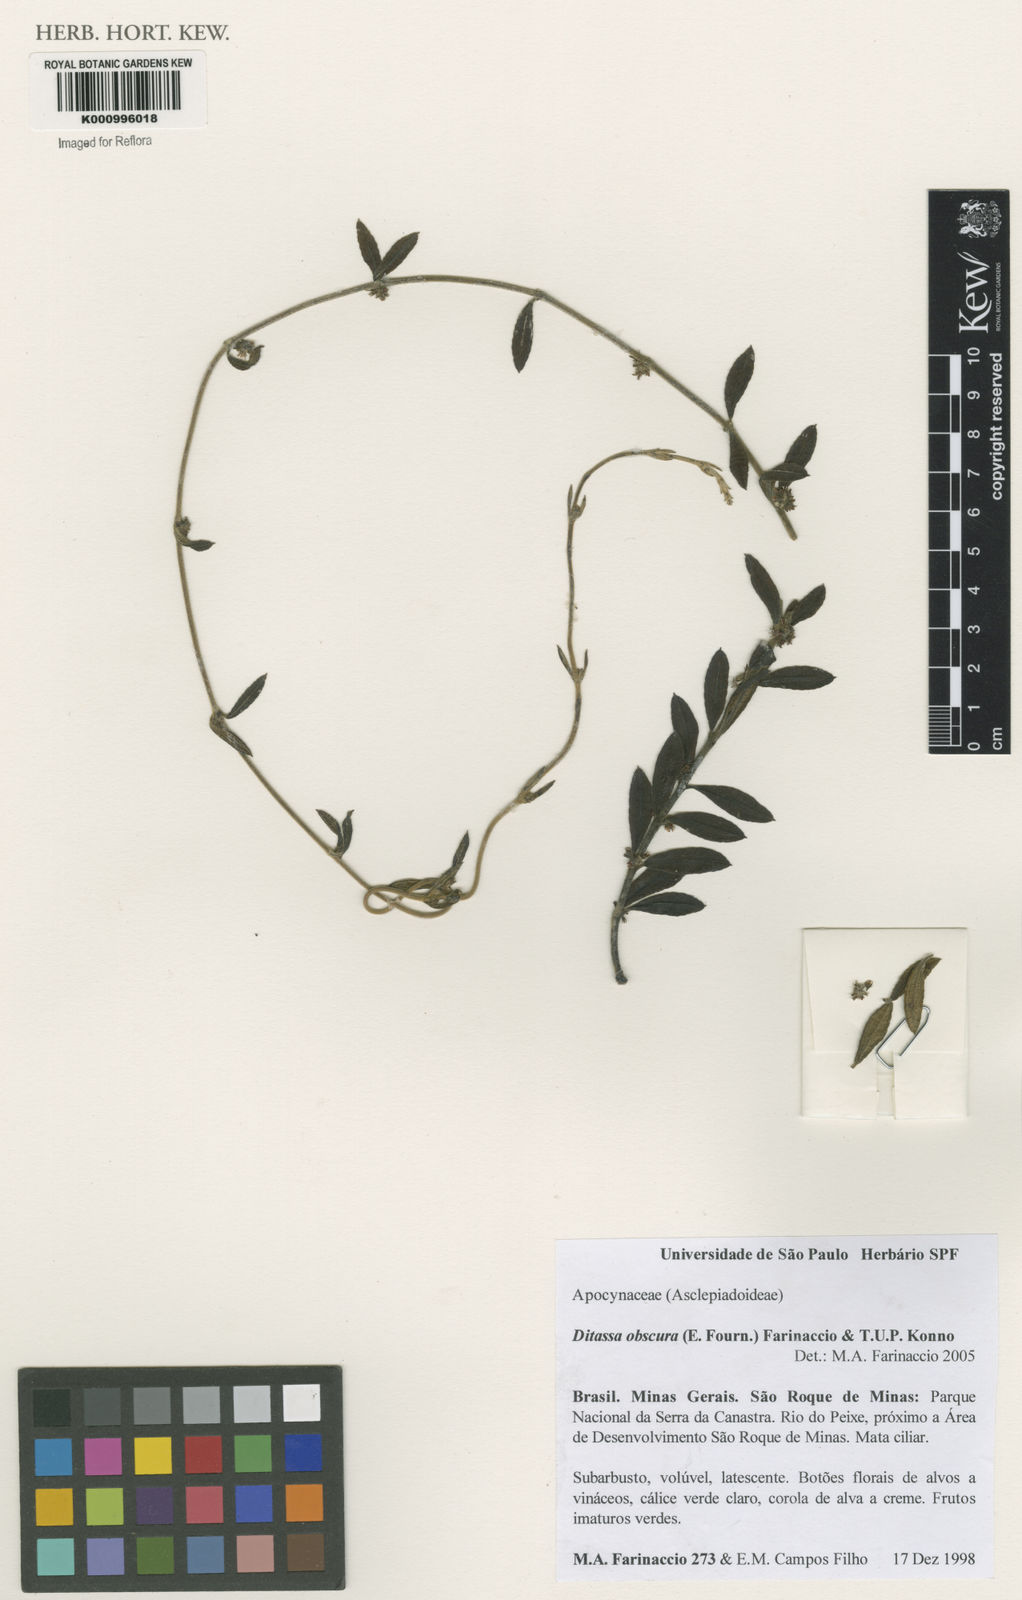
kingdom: Plantae
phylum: Tracheophyta
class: Magnoliopsida
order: Gentianales
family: Apocynaceae
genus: Ditassa
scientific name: Ditassa obscura
